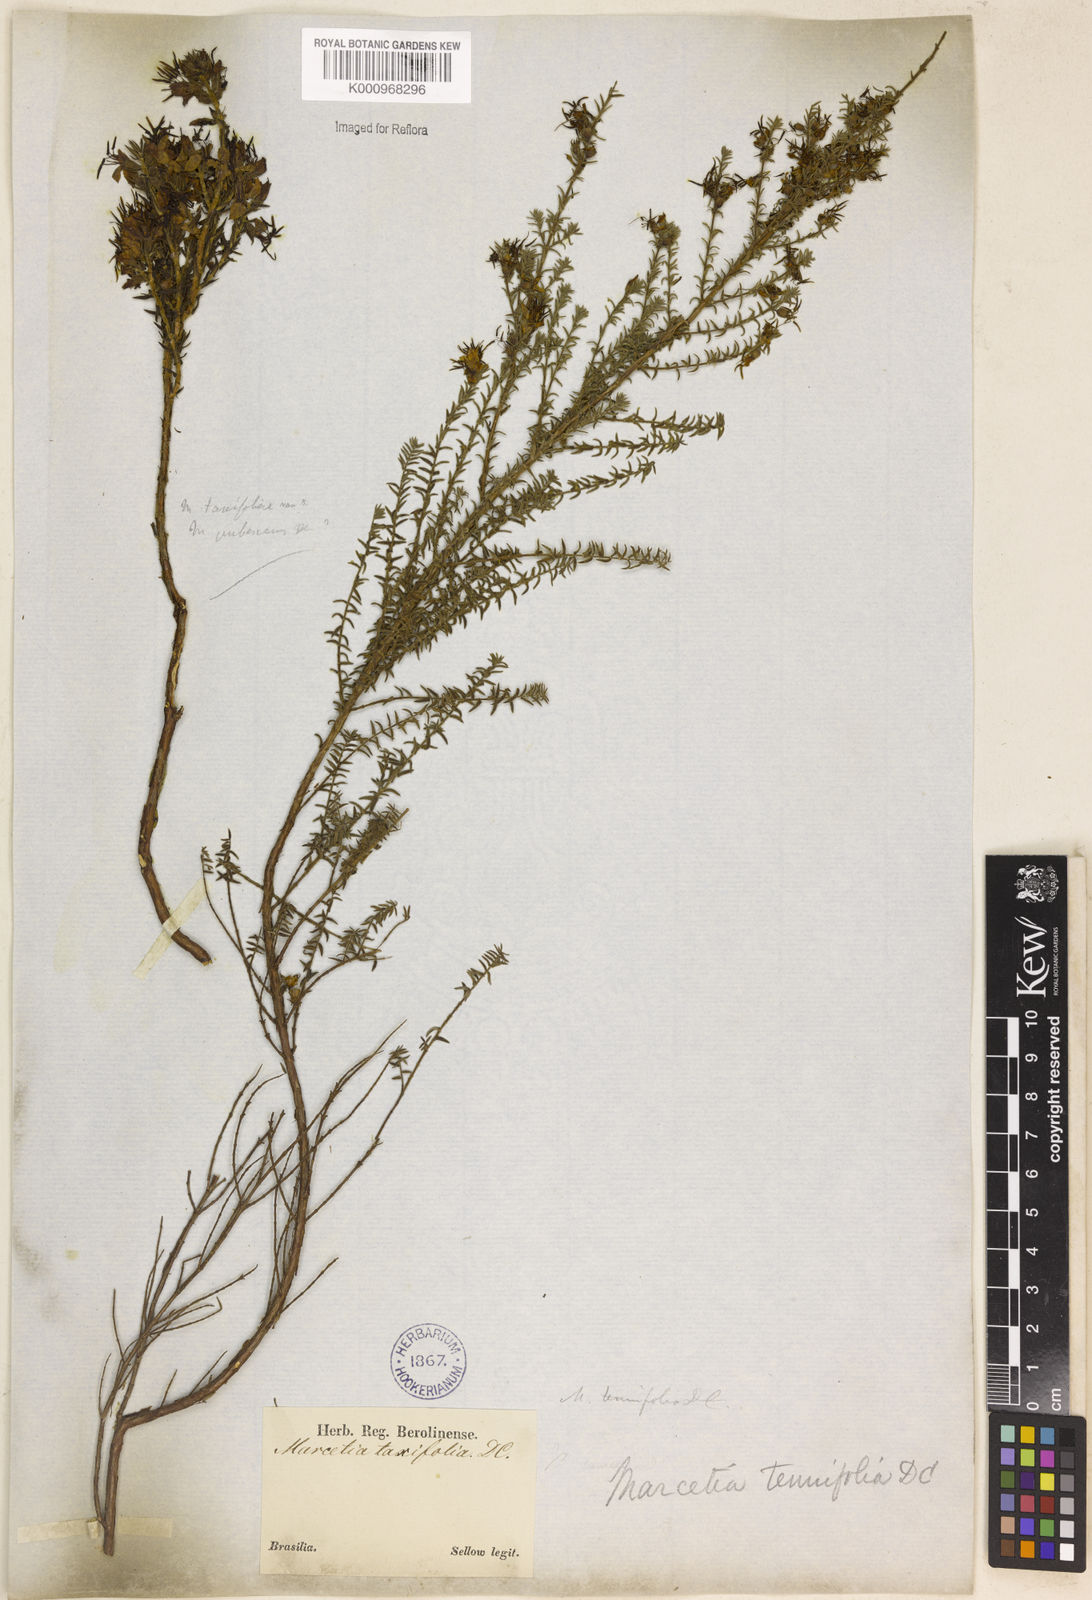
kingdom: Plantae
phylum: Tracheophyta
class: Magnoliopsida
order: Myrtales
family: Melastomataceae
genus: Marcetia
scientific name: Marcetia taxifolia
